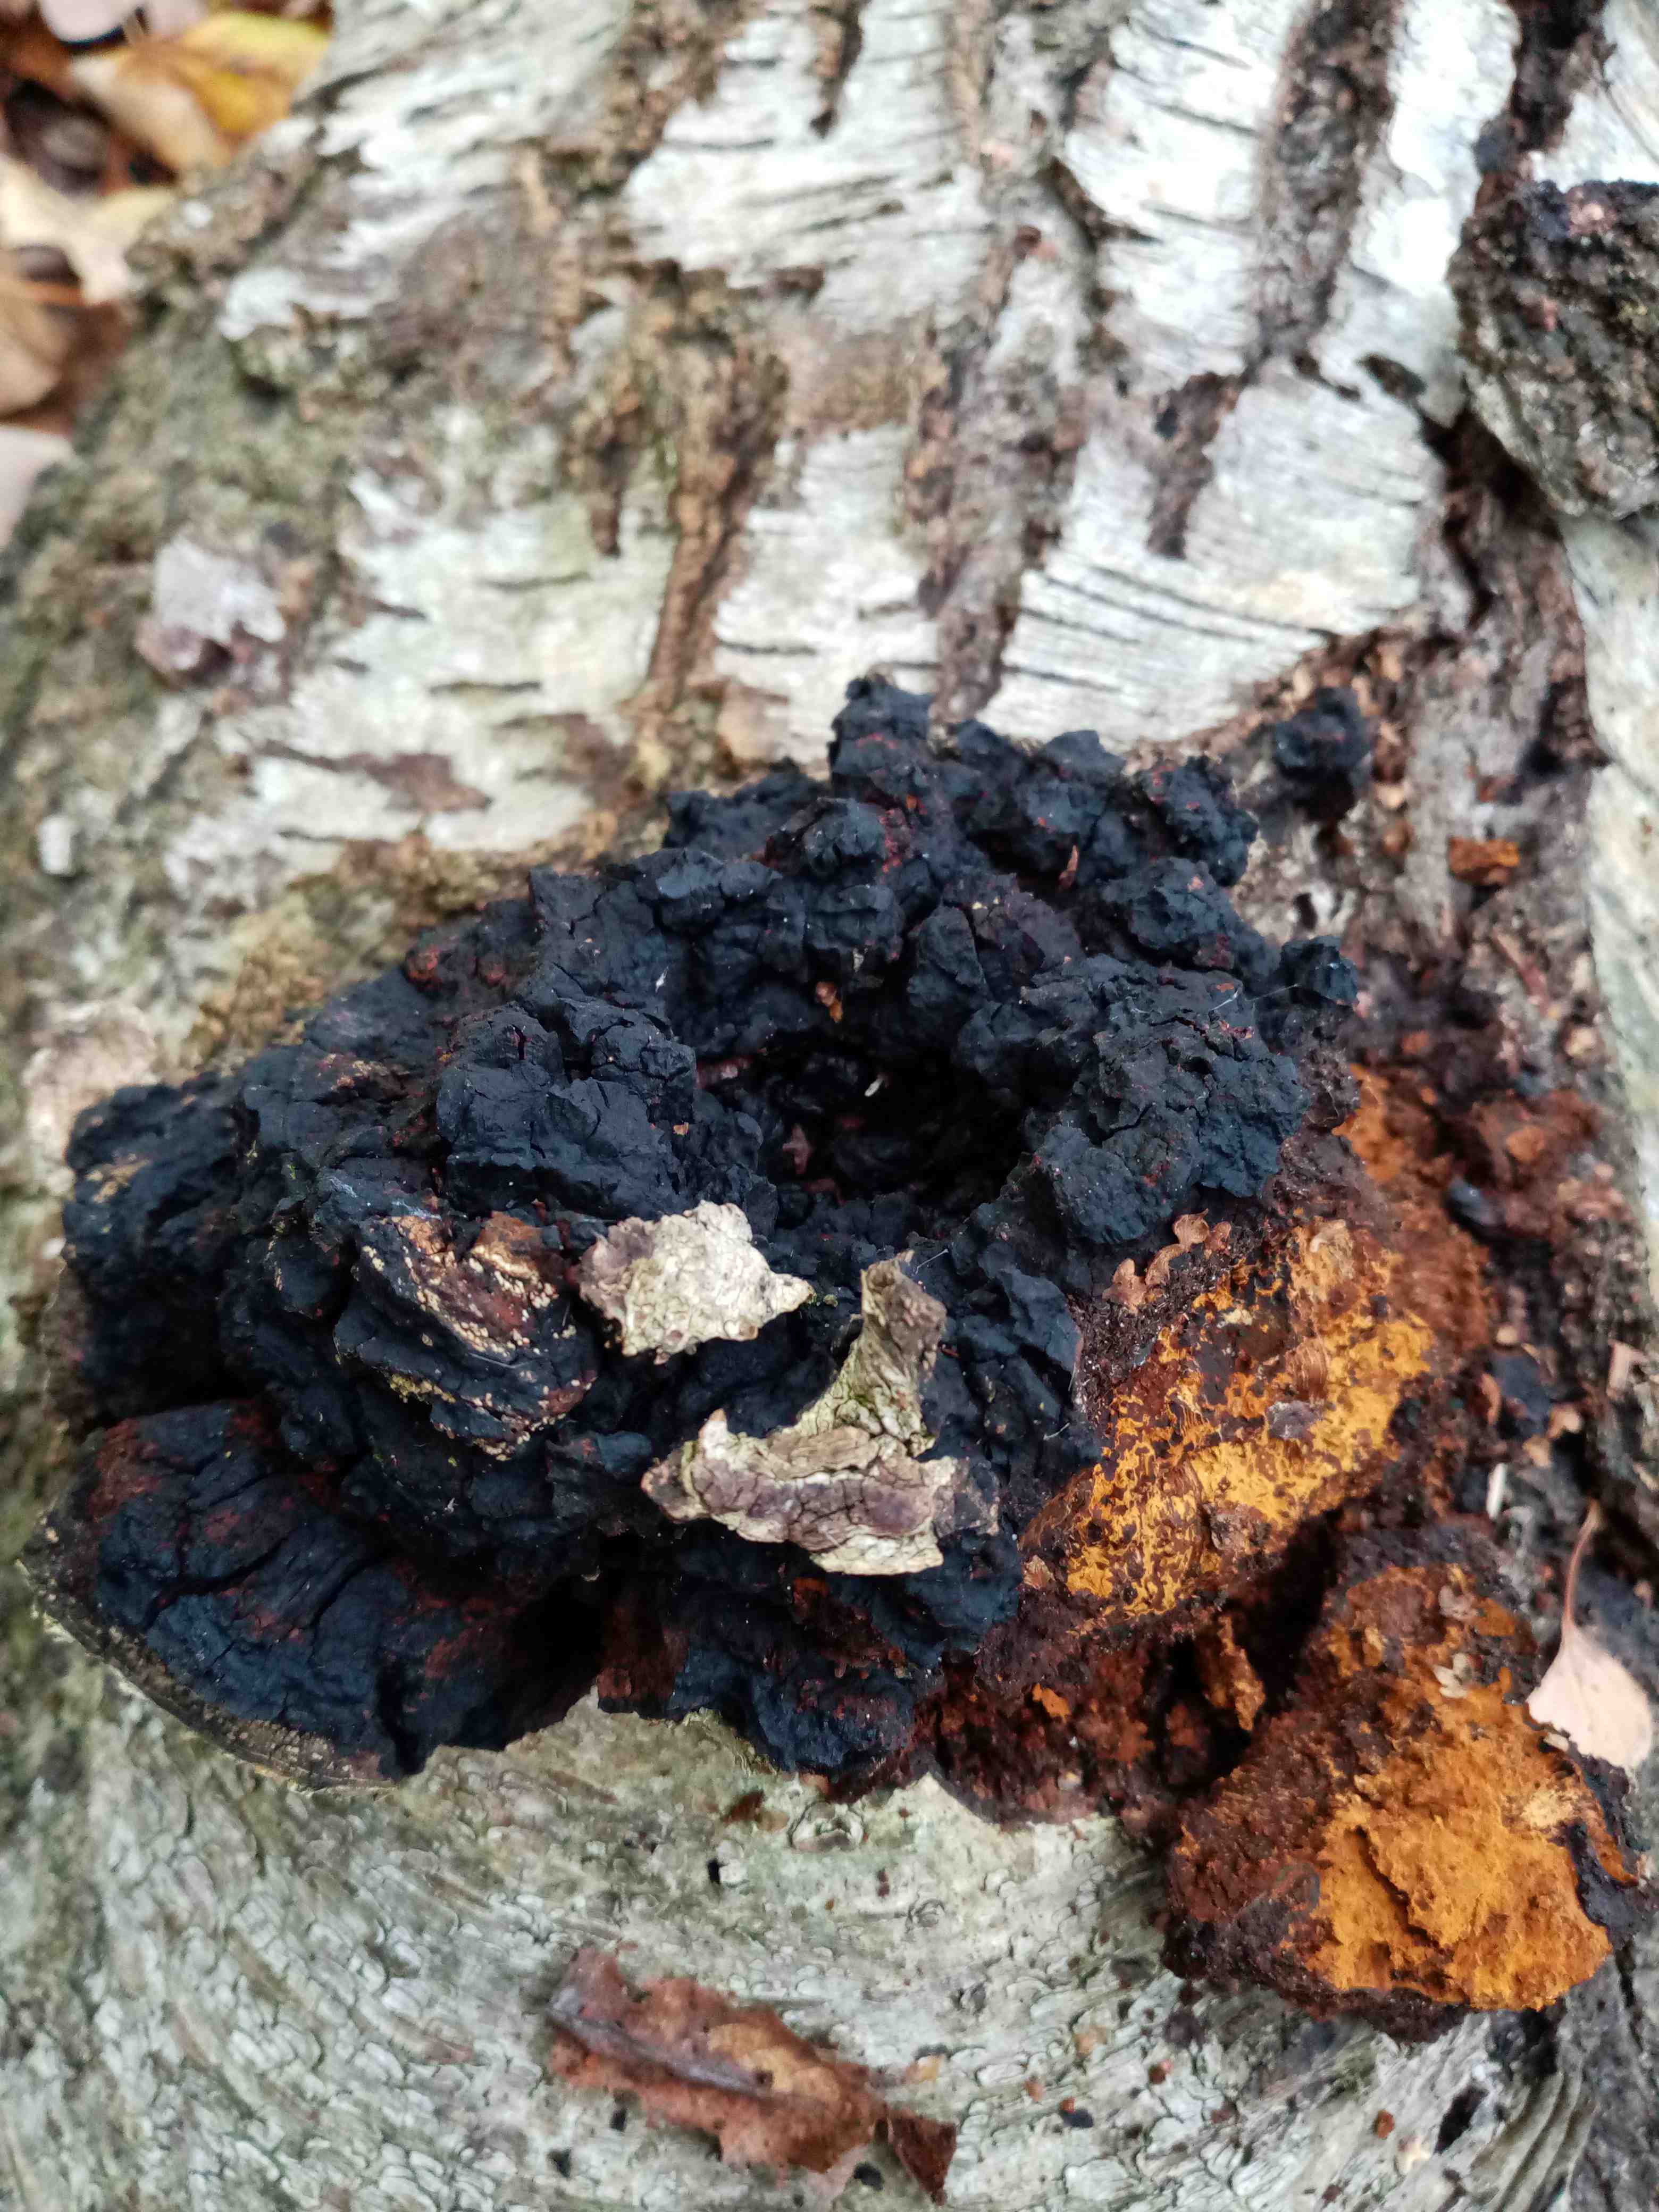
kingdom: Fungi
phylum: Basidiomycota
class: Agaricomycetes
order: Hymenochaetales
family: Hymenochaetaceae
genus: Inonotus
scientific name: Inonotus obliquus
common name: birke-spejlporesvamp
